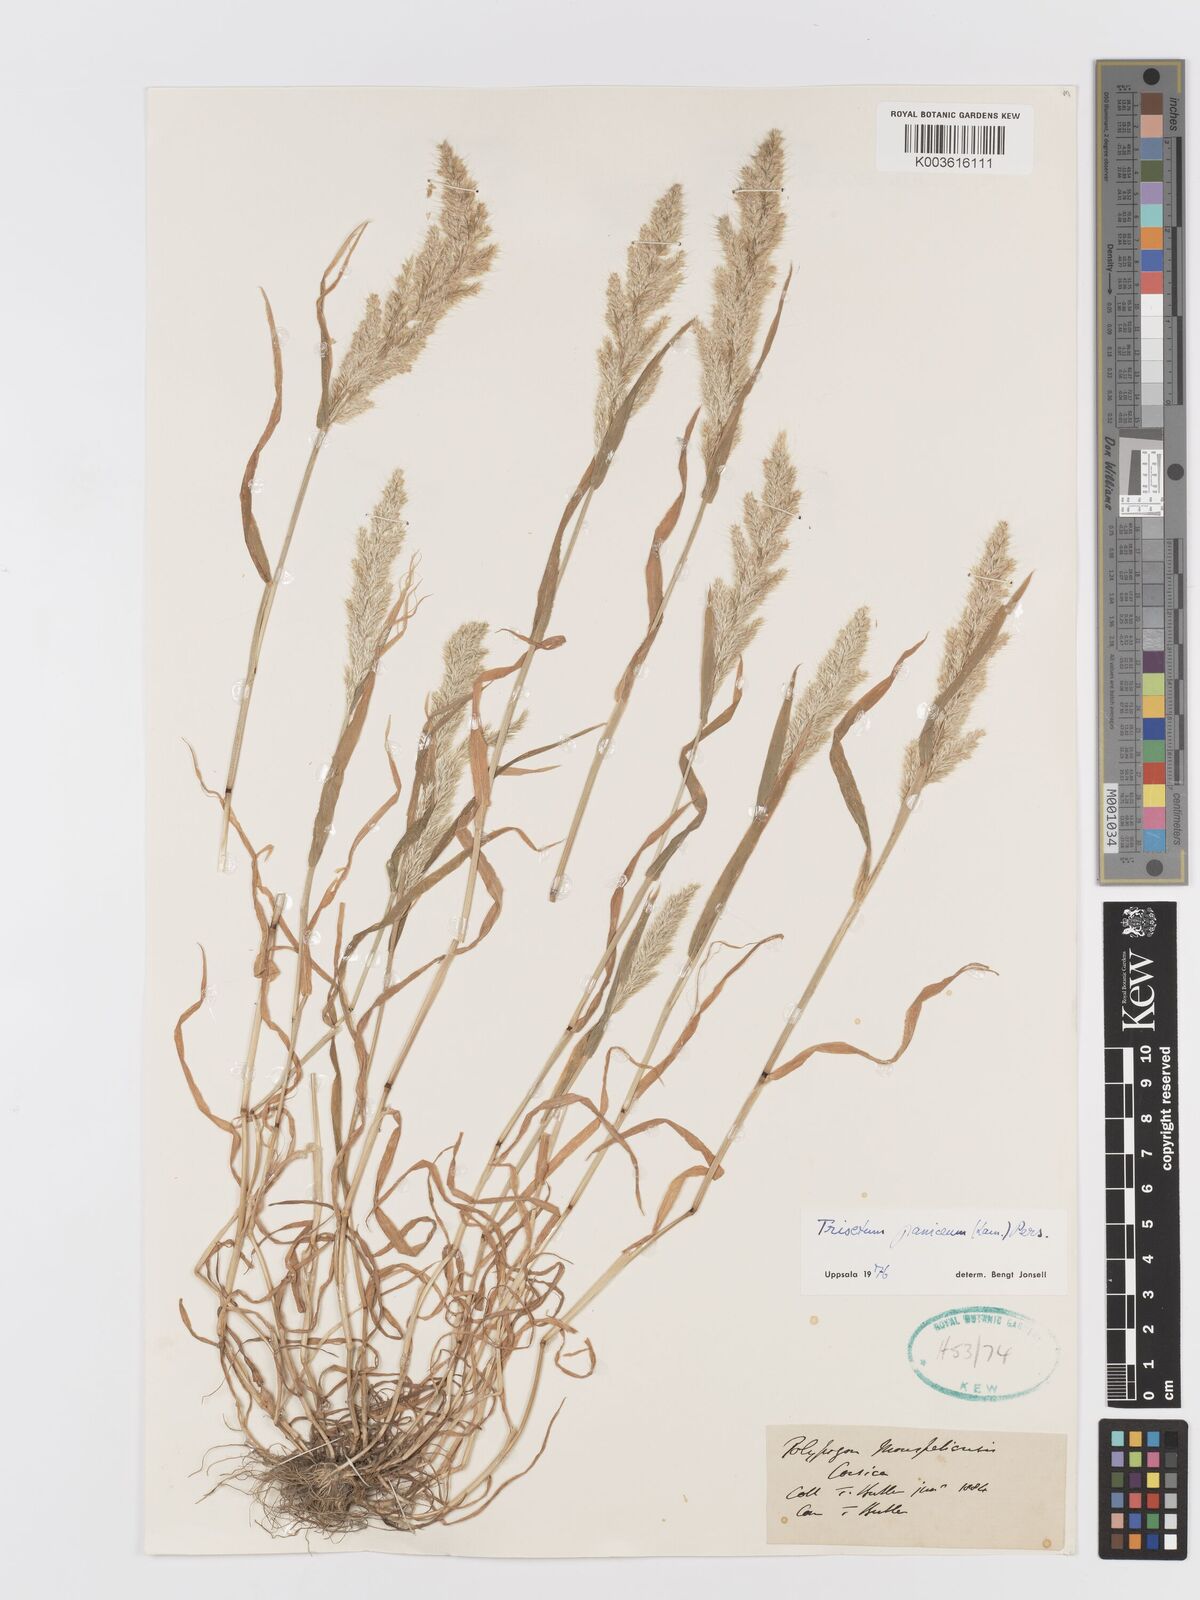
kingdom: Plantae
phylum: Tracheophyta
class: Liliopsida
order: Poales
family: Poaceae
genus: Trisetaria
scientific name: Trisetaria panicea
